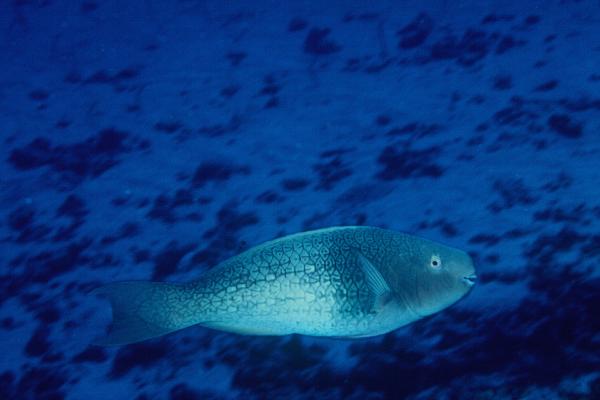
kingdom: Animalia
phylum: Chordata
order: Perciformes
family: Scaridae
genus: Scarus
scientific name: Scarus rubroviolaceus
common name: Ember parrotfish
